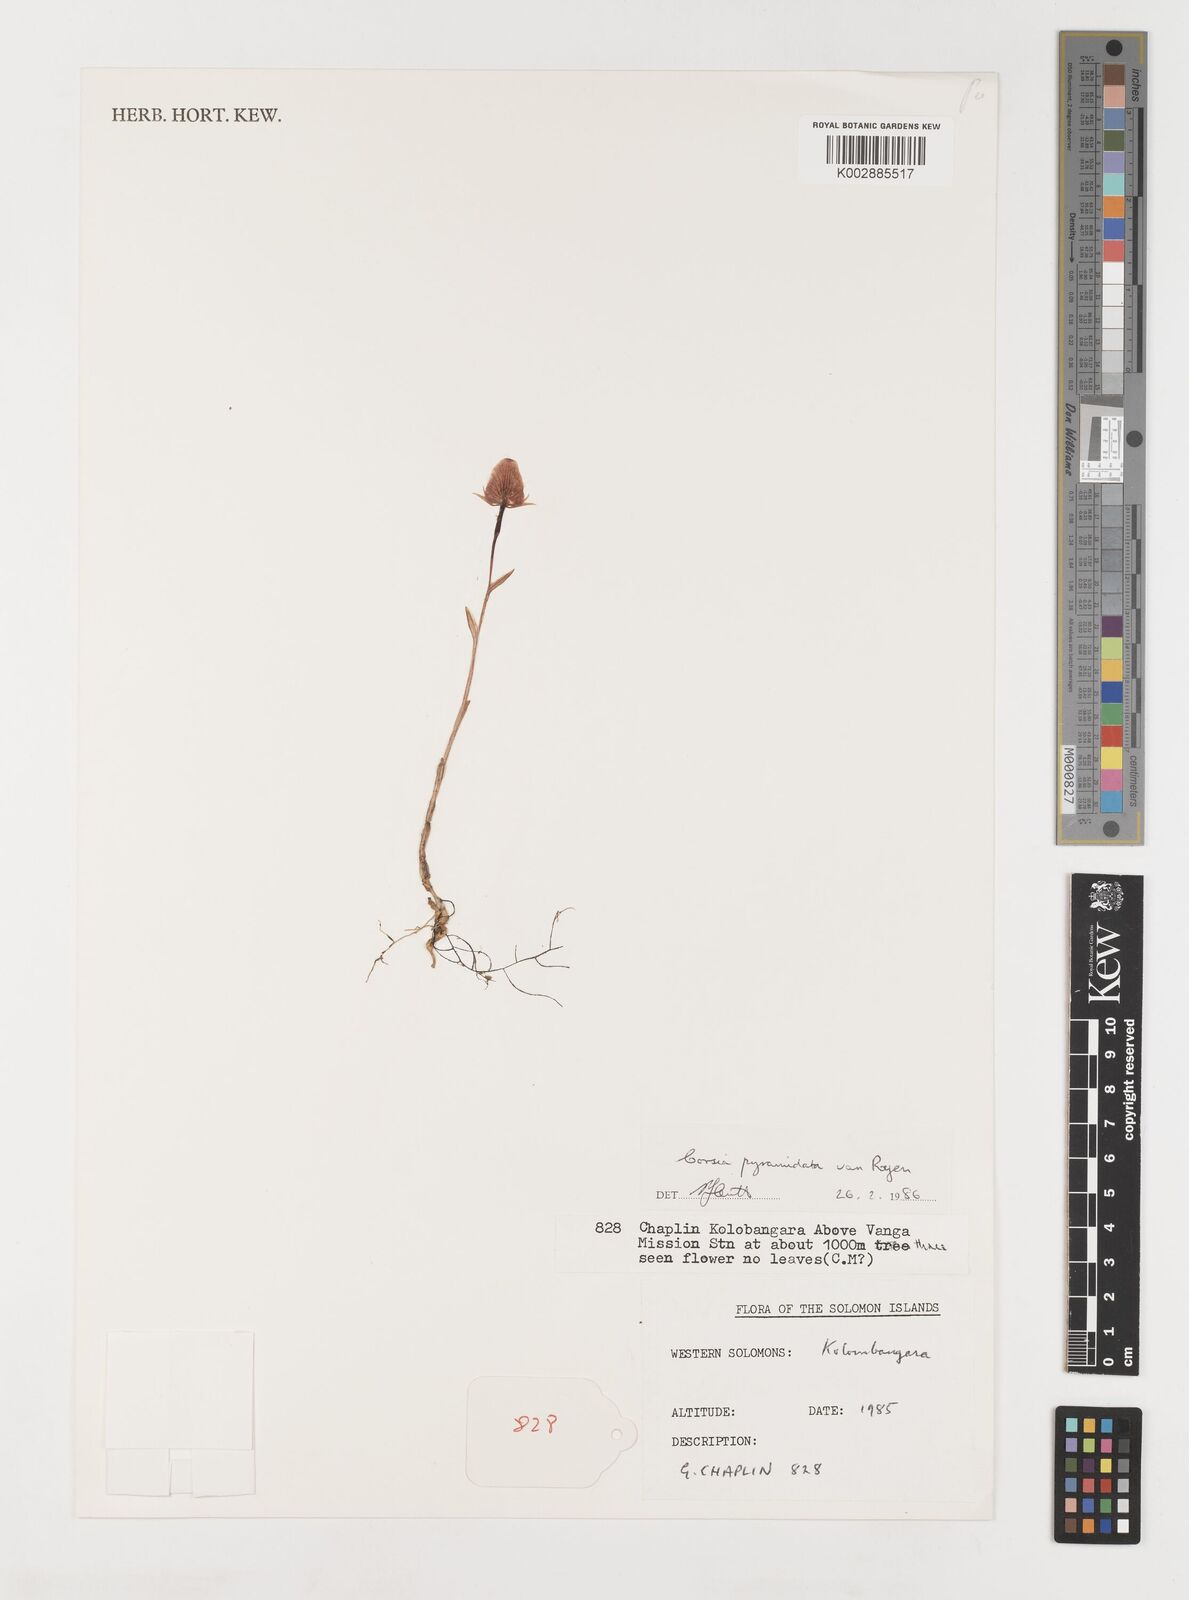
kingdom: Plantae
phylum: Tracheophyta
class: Liliopsida
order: Liliales
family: Corsiaceae
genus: Corsia
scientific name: Corsia pyramidata
